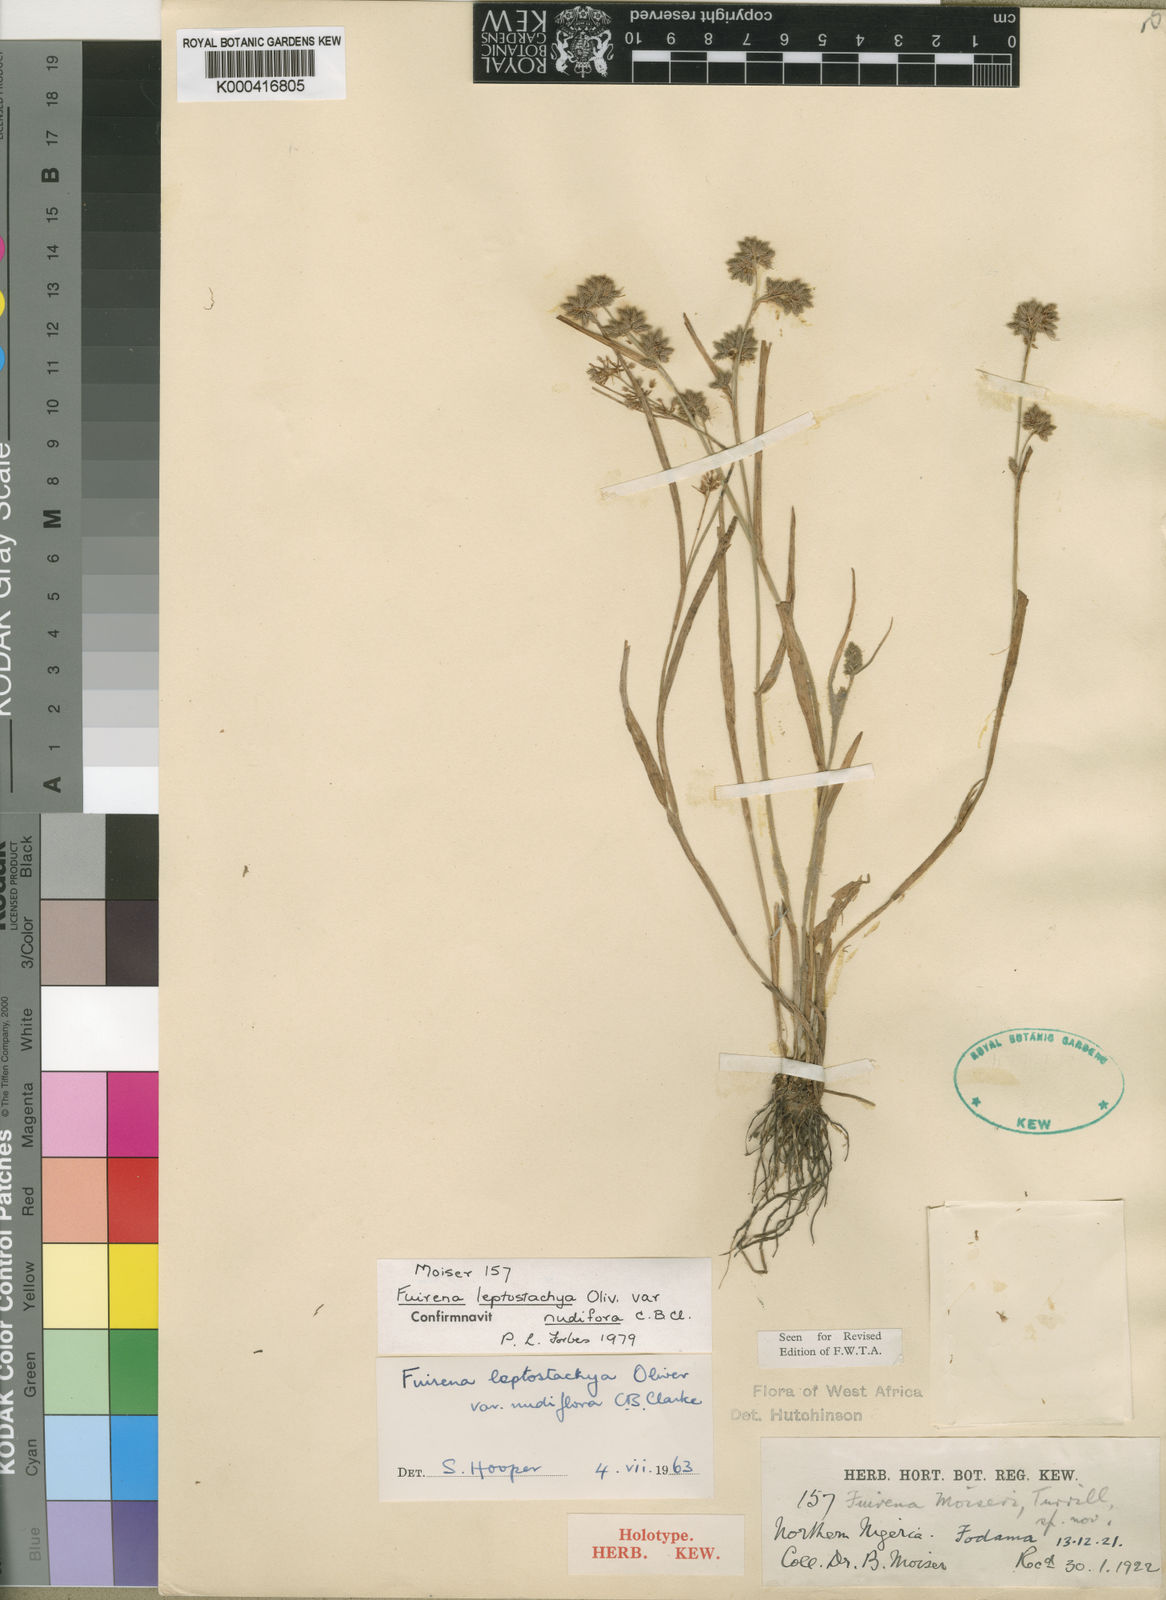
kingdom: Plantae
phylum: Tracheophyta
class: Liliopsida
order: Poales
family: Cyperaceae
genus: Fuirena
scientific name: Fuirena leptostachya
